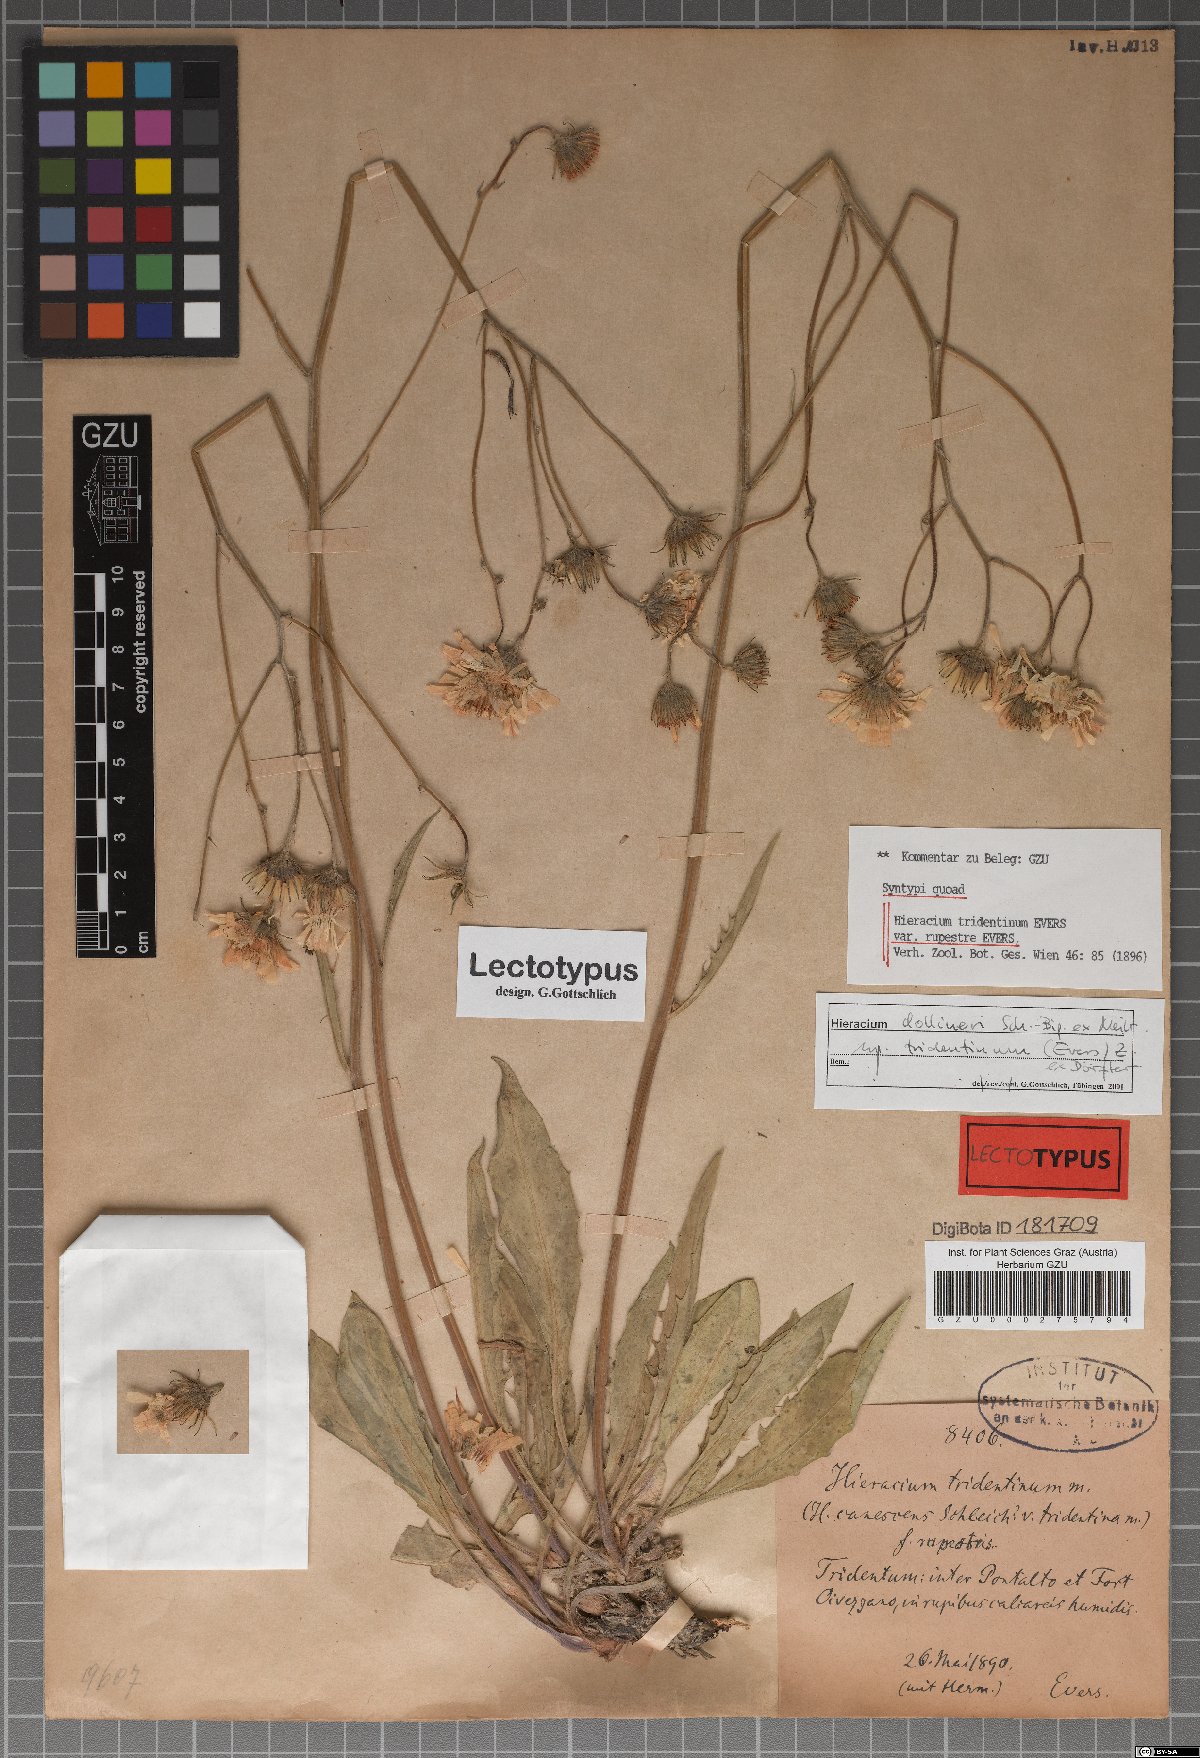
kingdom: Plantae
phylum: Tracheophyta
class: Magnoliopsida
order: Asterales
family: Asteraceae
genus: Hieracium
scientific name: Hieracium tridentinum
